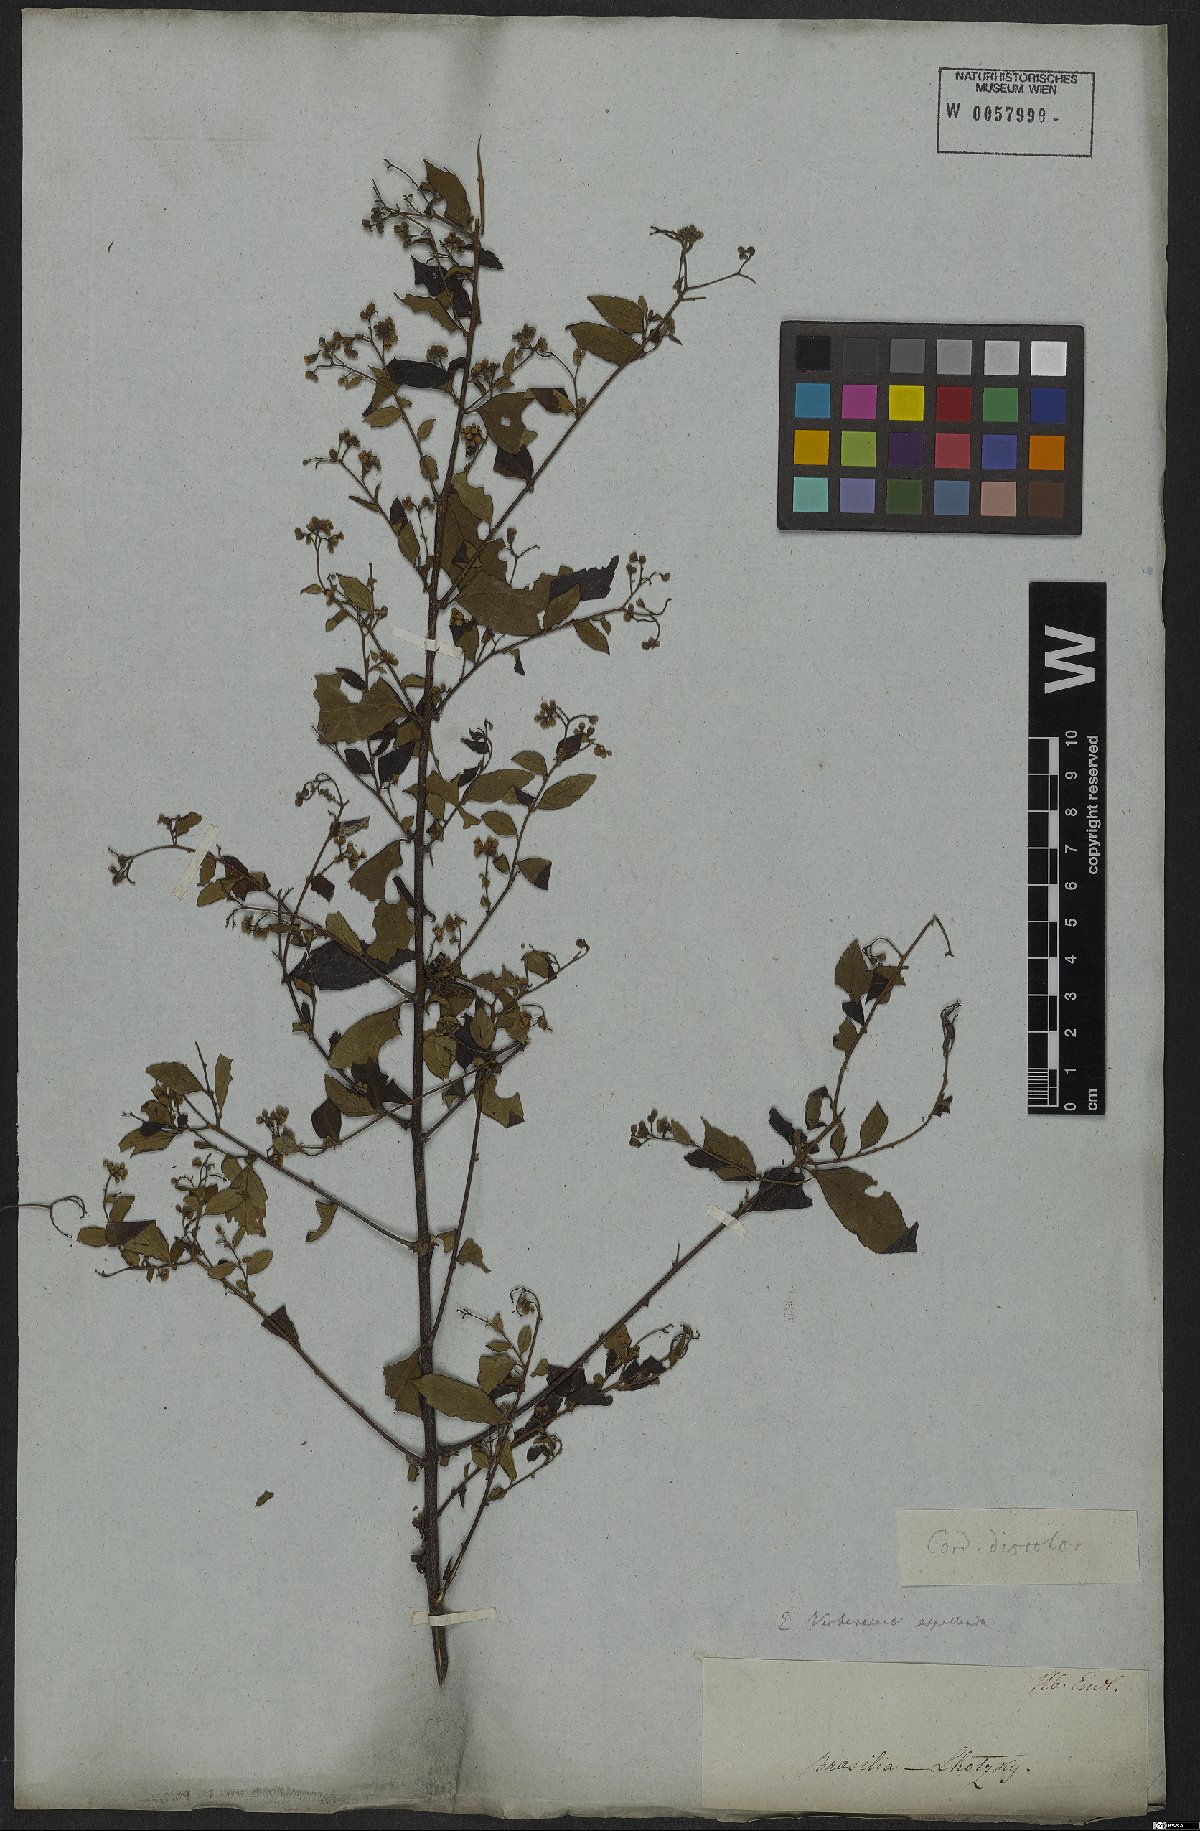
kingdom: Plantae
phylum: Tracheophyta
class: Magnoliopsida
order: Boraginales
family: Cordiaceae
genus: Varronia
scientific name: Varronia discolor
